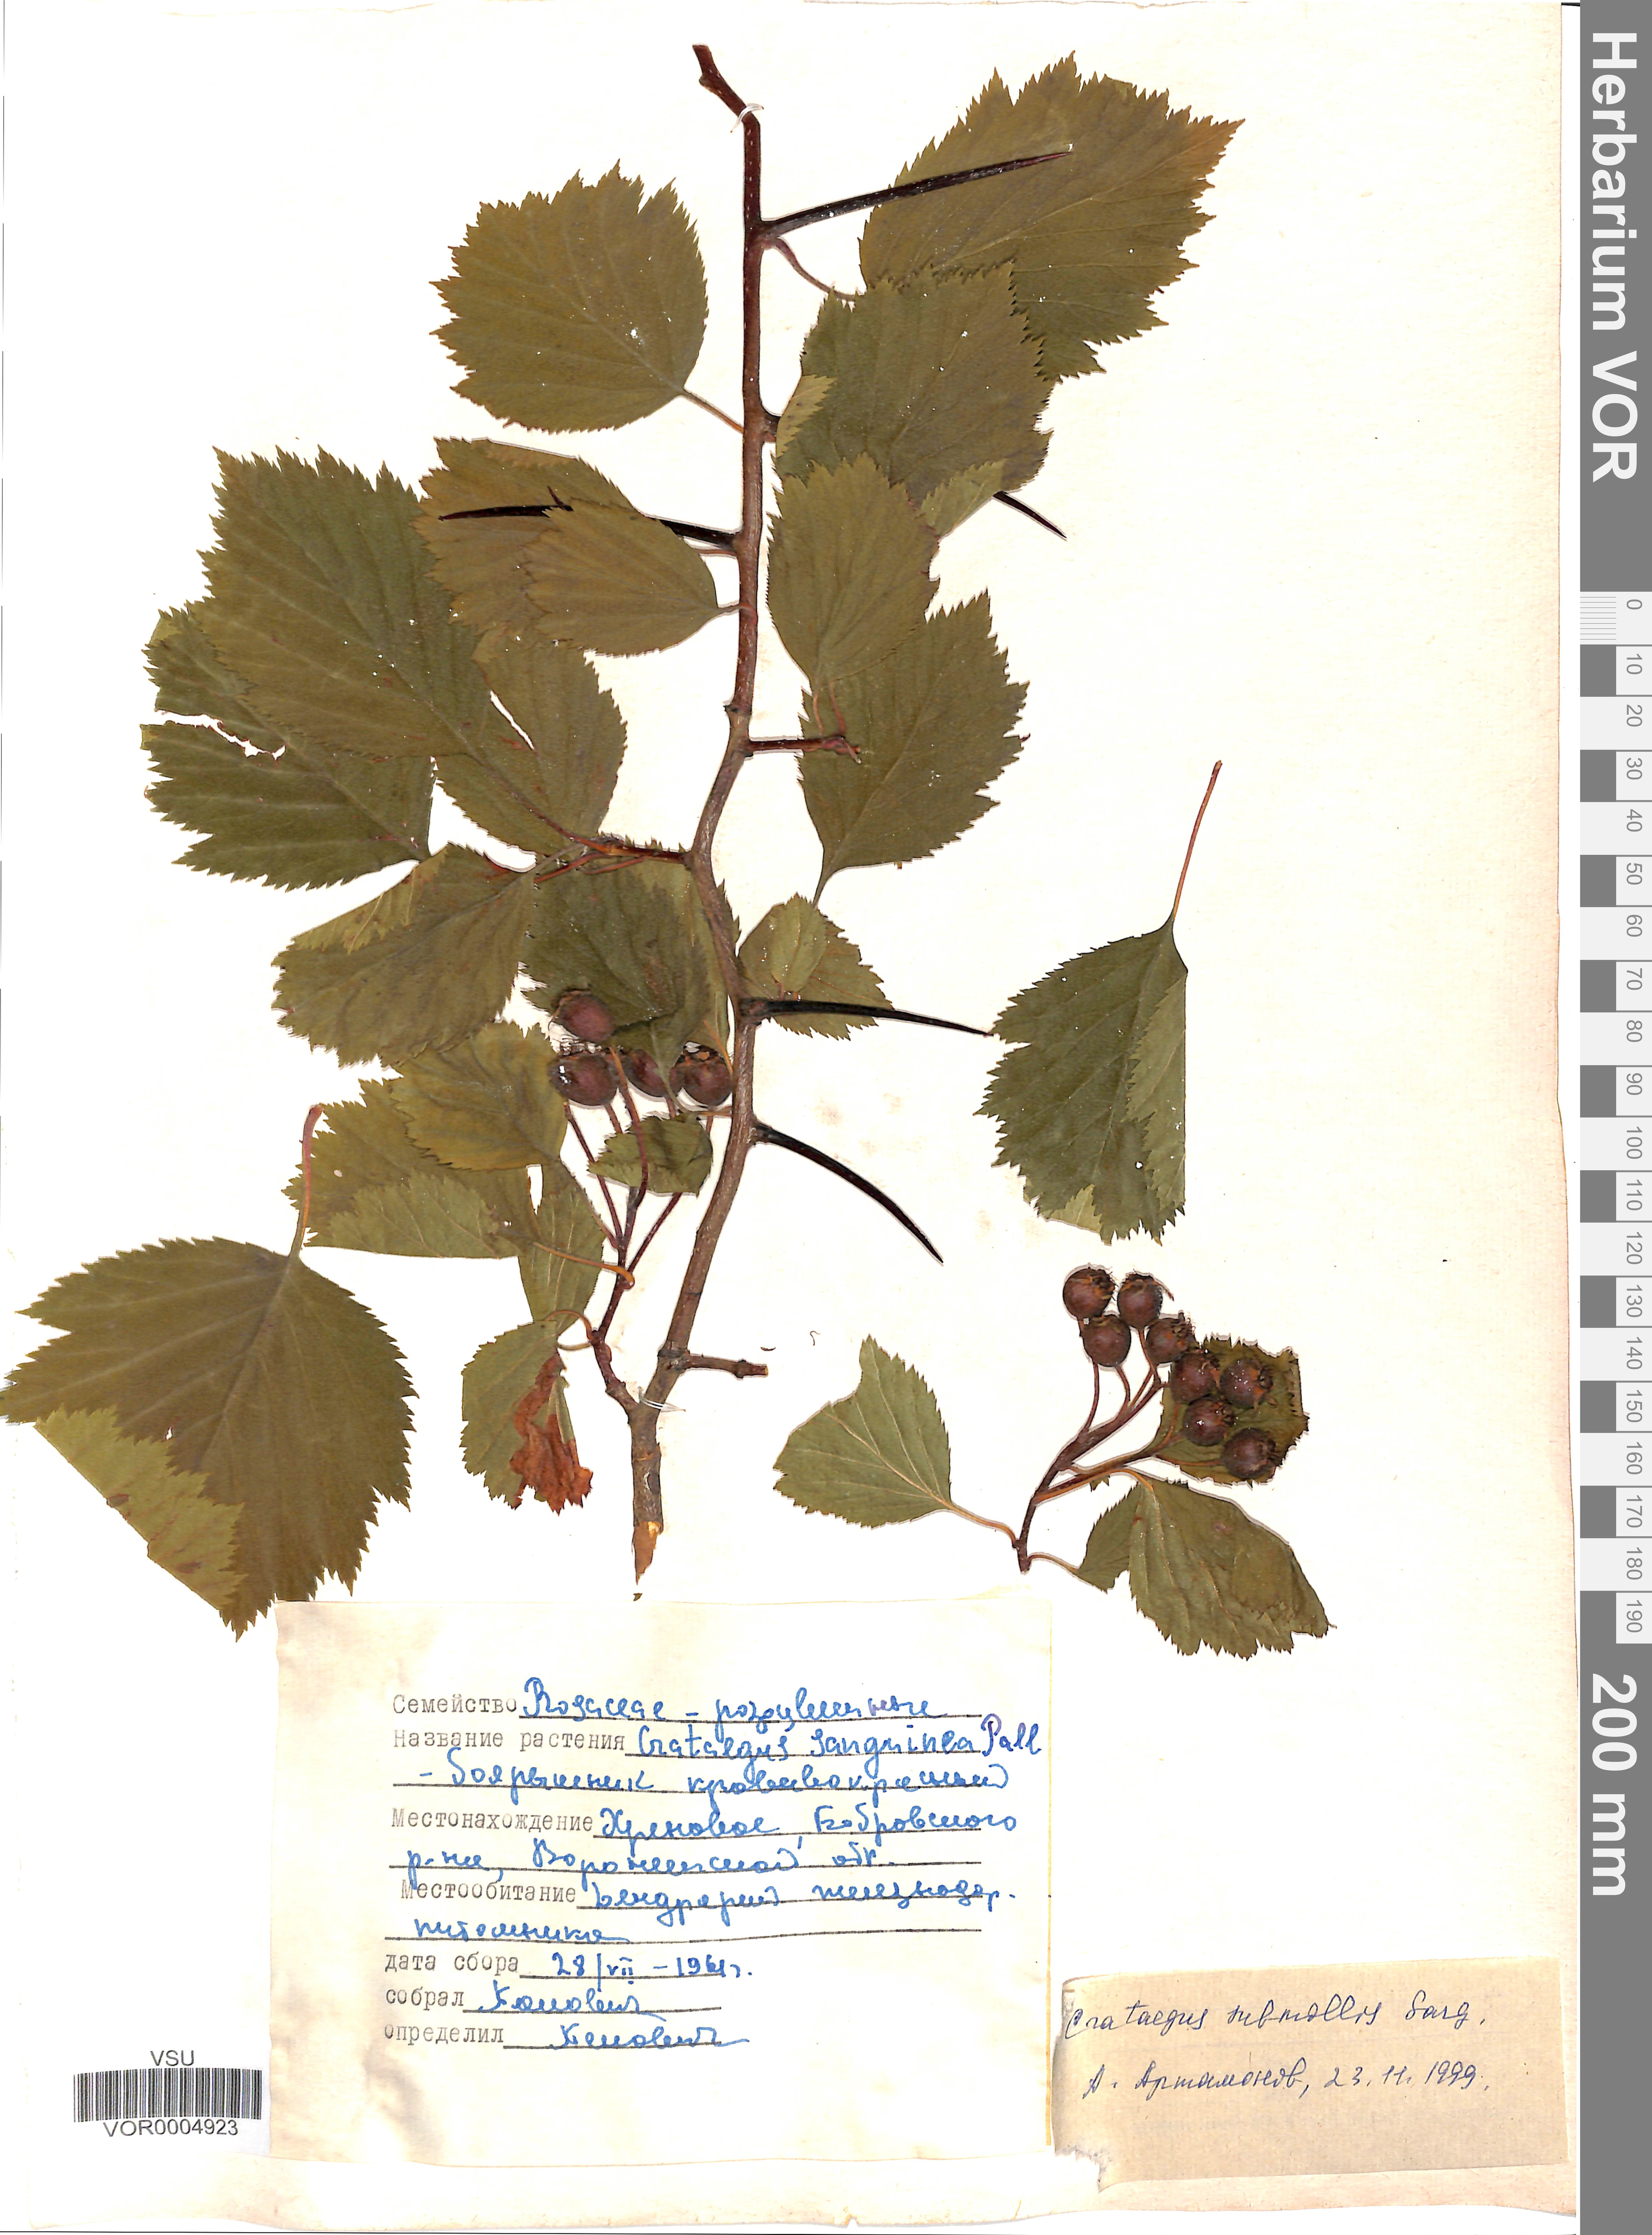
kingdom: Plantae
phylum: Tracheophyta
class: Magnoliopsida
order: Rosales
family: Rosaceae
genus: Crataegus
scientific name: Crataegus submollis
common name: Hairy cockspurthorn
